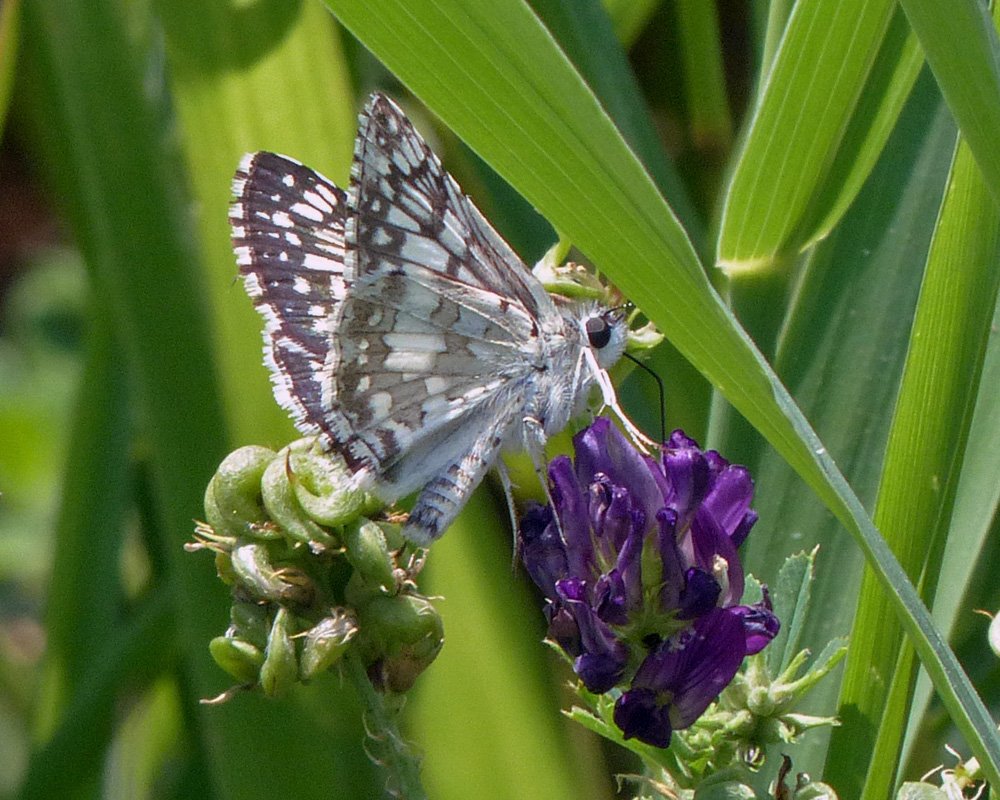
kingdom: Animalia
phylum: Arthropoda
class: Insecta
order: Lepidoptera
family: Hesperiidae
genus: Pyrgus
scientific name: Pyrgus communis
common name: Common Checkered-Skipper
